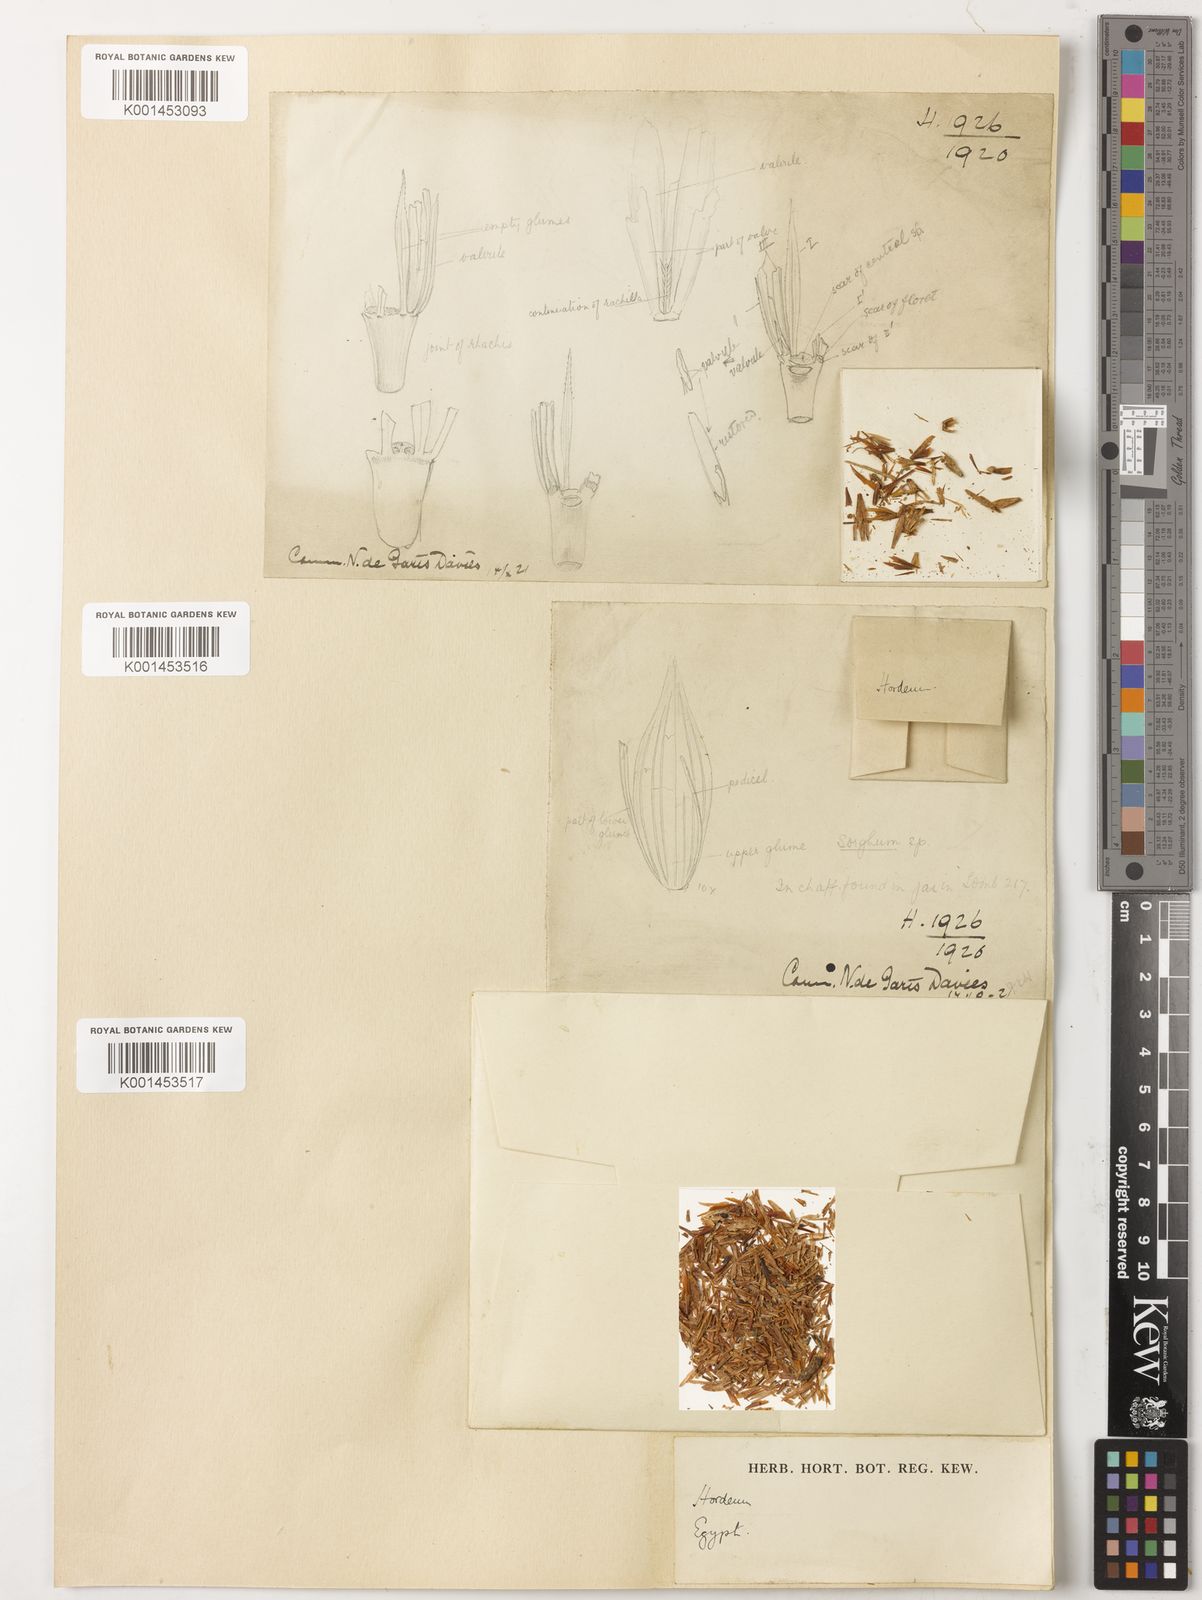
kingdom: Plantae
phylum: Tracheophyta
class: Liliopsida
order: Poales
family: Poaceae
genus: Hordeum
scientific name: Hordeum vulgare
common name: Common barley
